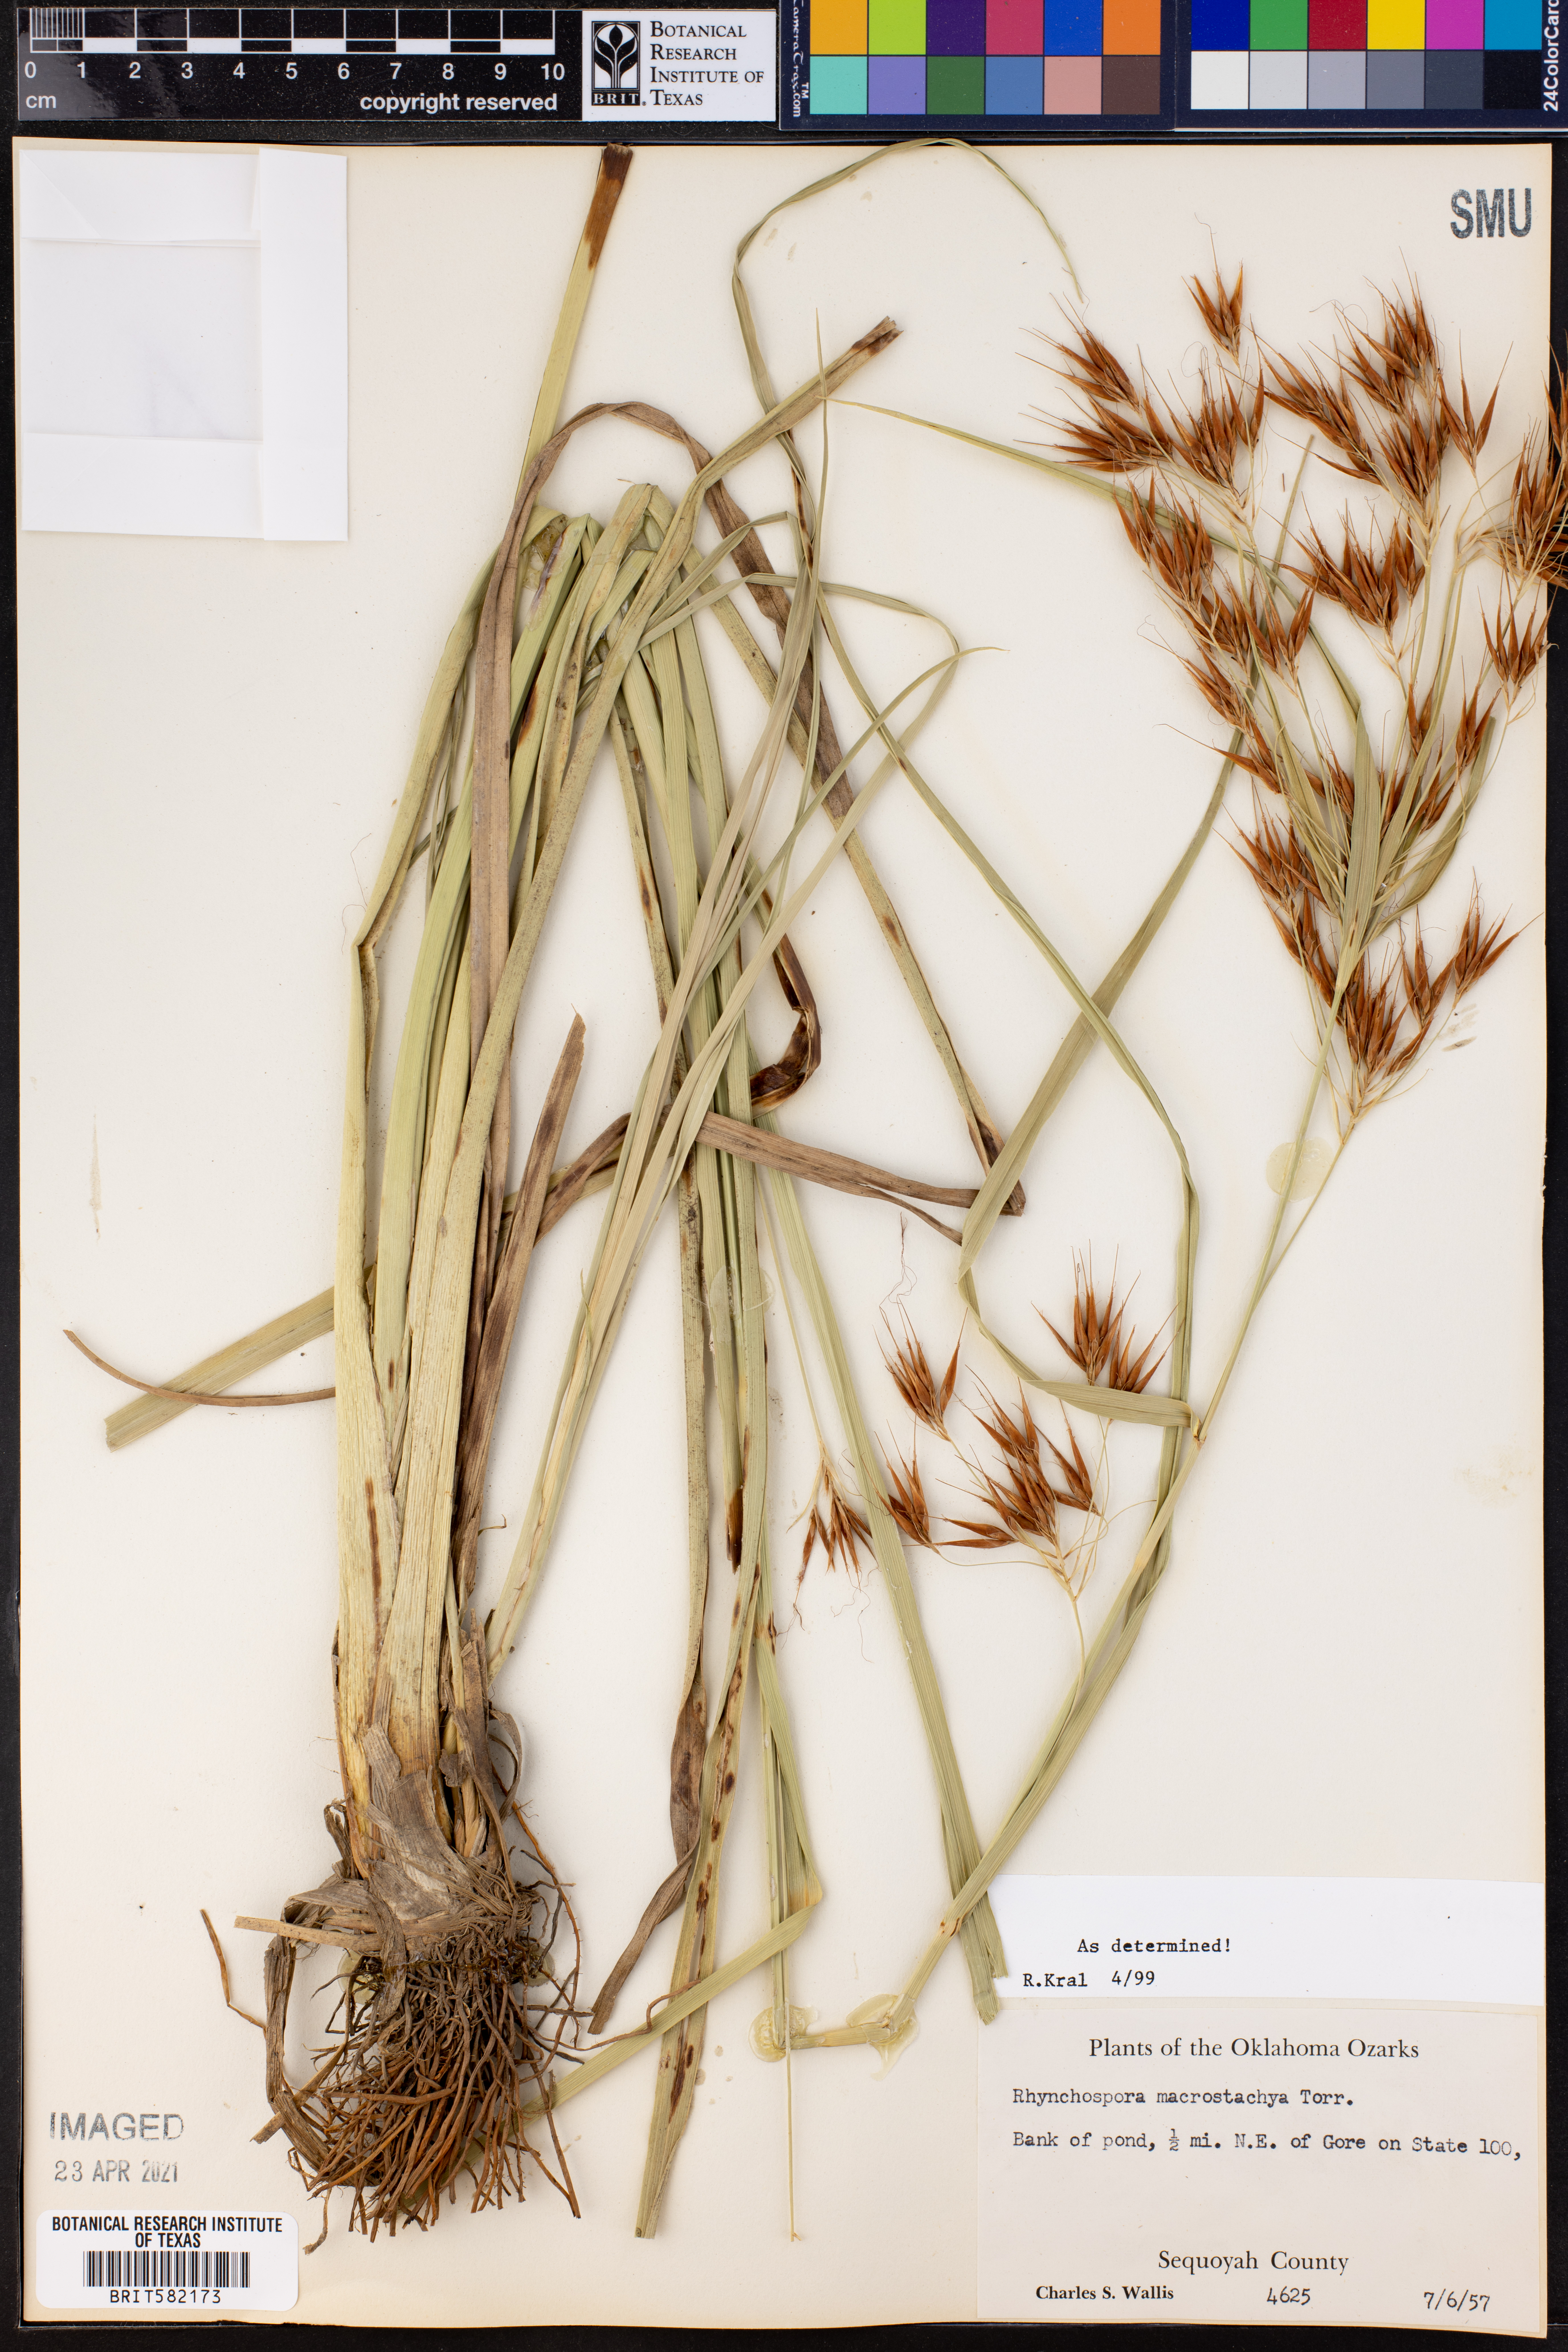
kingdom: Plantae
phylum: Tracheophyta
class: Liliopsida
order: Poales
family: Cyperaceae
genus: Rhynchospora
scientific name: Rhynchospora macrostachya
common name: Tall beakrush
